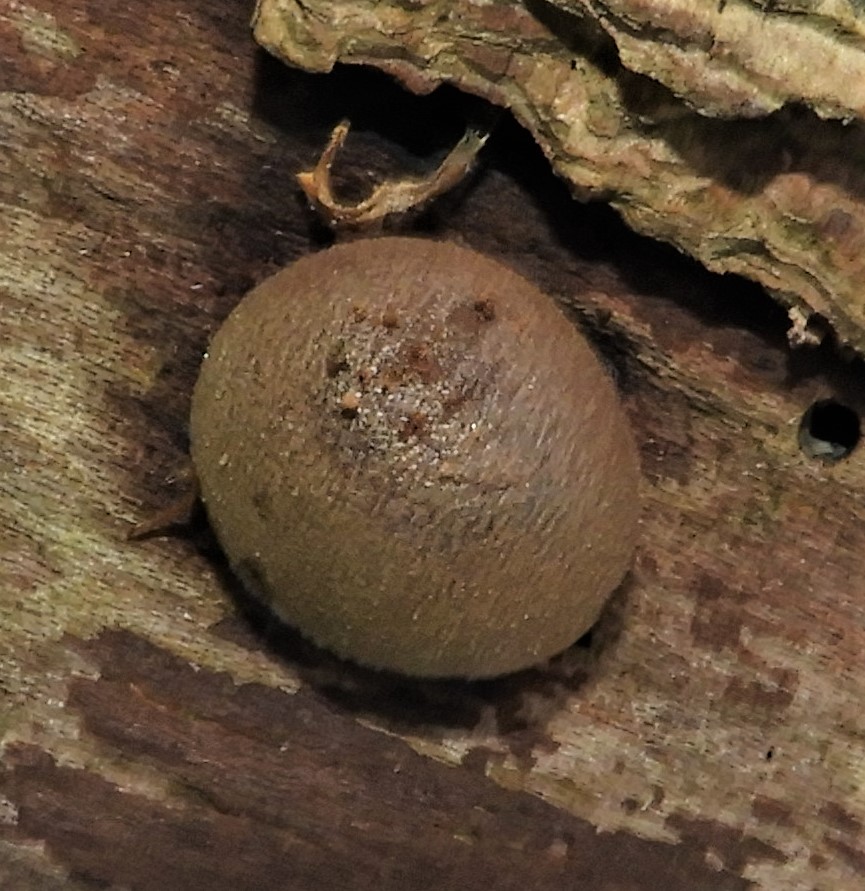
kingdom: Protozoa
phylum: Mycetozoa
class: Myxomycetes
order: Cribrariales
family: Tubiferaceae
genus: Lycogala
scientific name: Lycogala epidendrum
